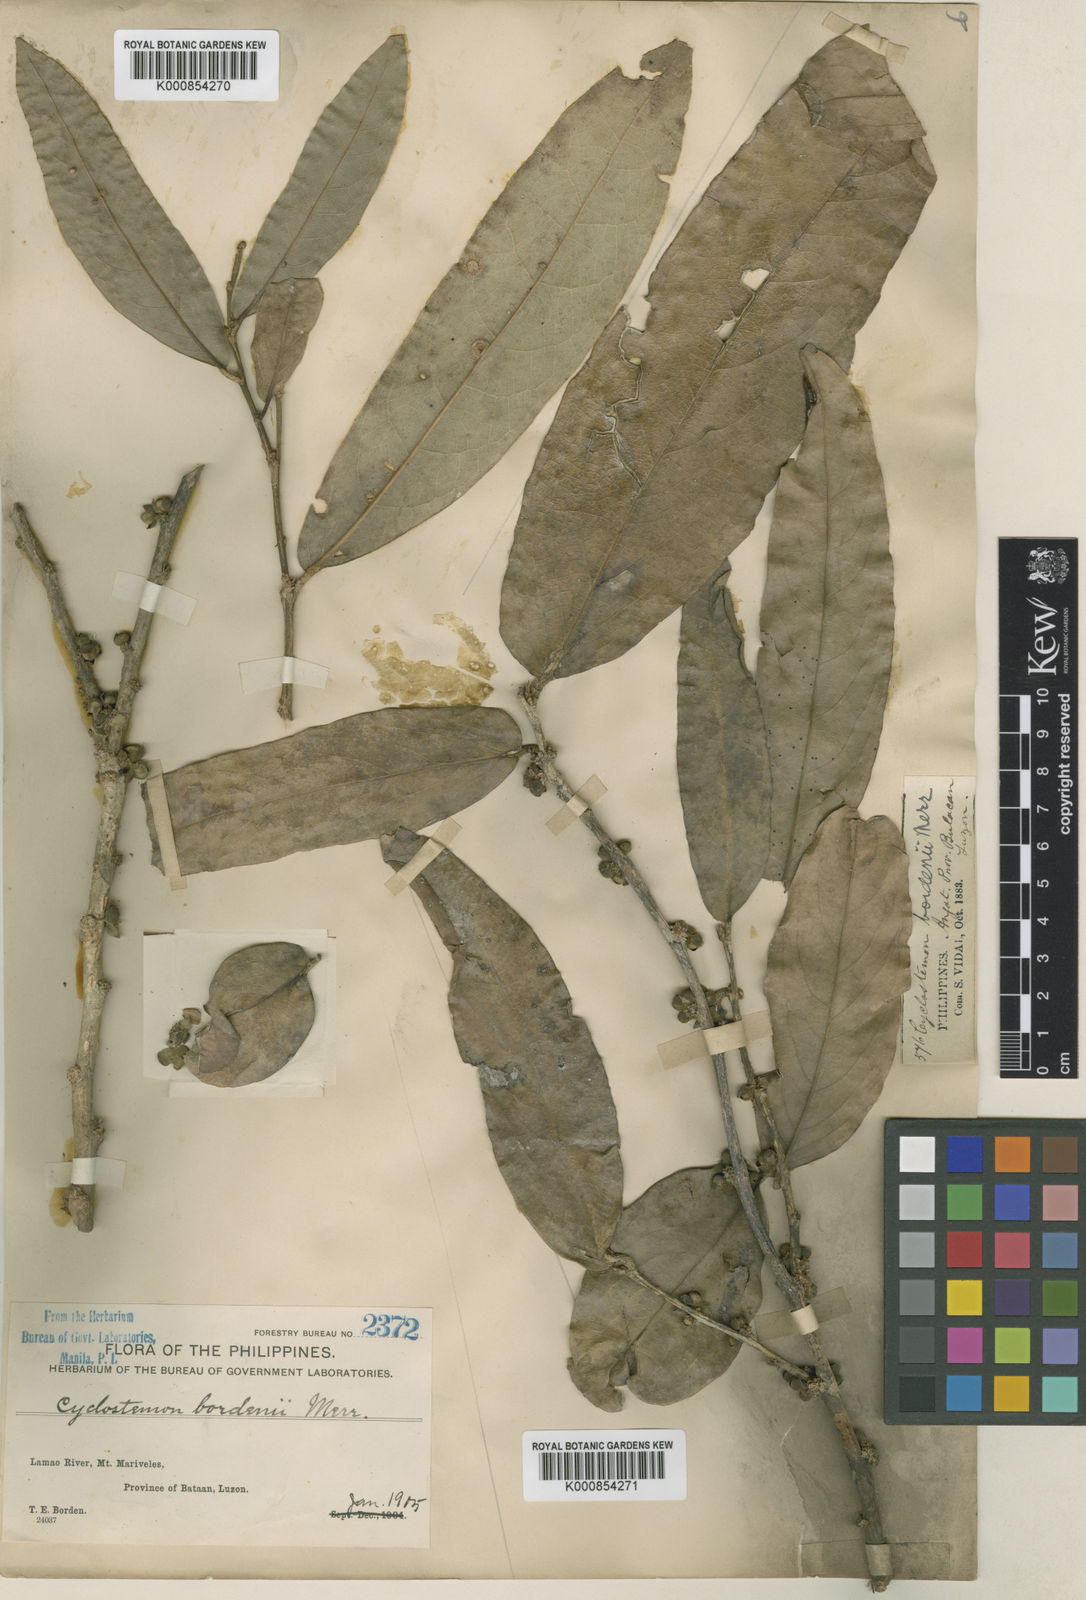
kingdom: Plantae
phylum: Tracheophyta
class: Magnoliopsida
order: Malpighiales
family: Putranjivaceae
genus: Drypetes
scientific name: Drypetes longifolia
